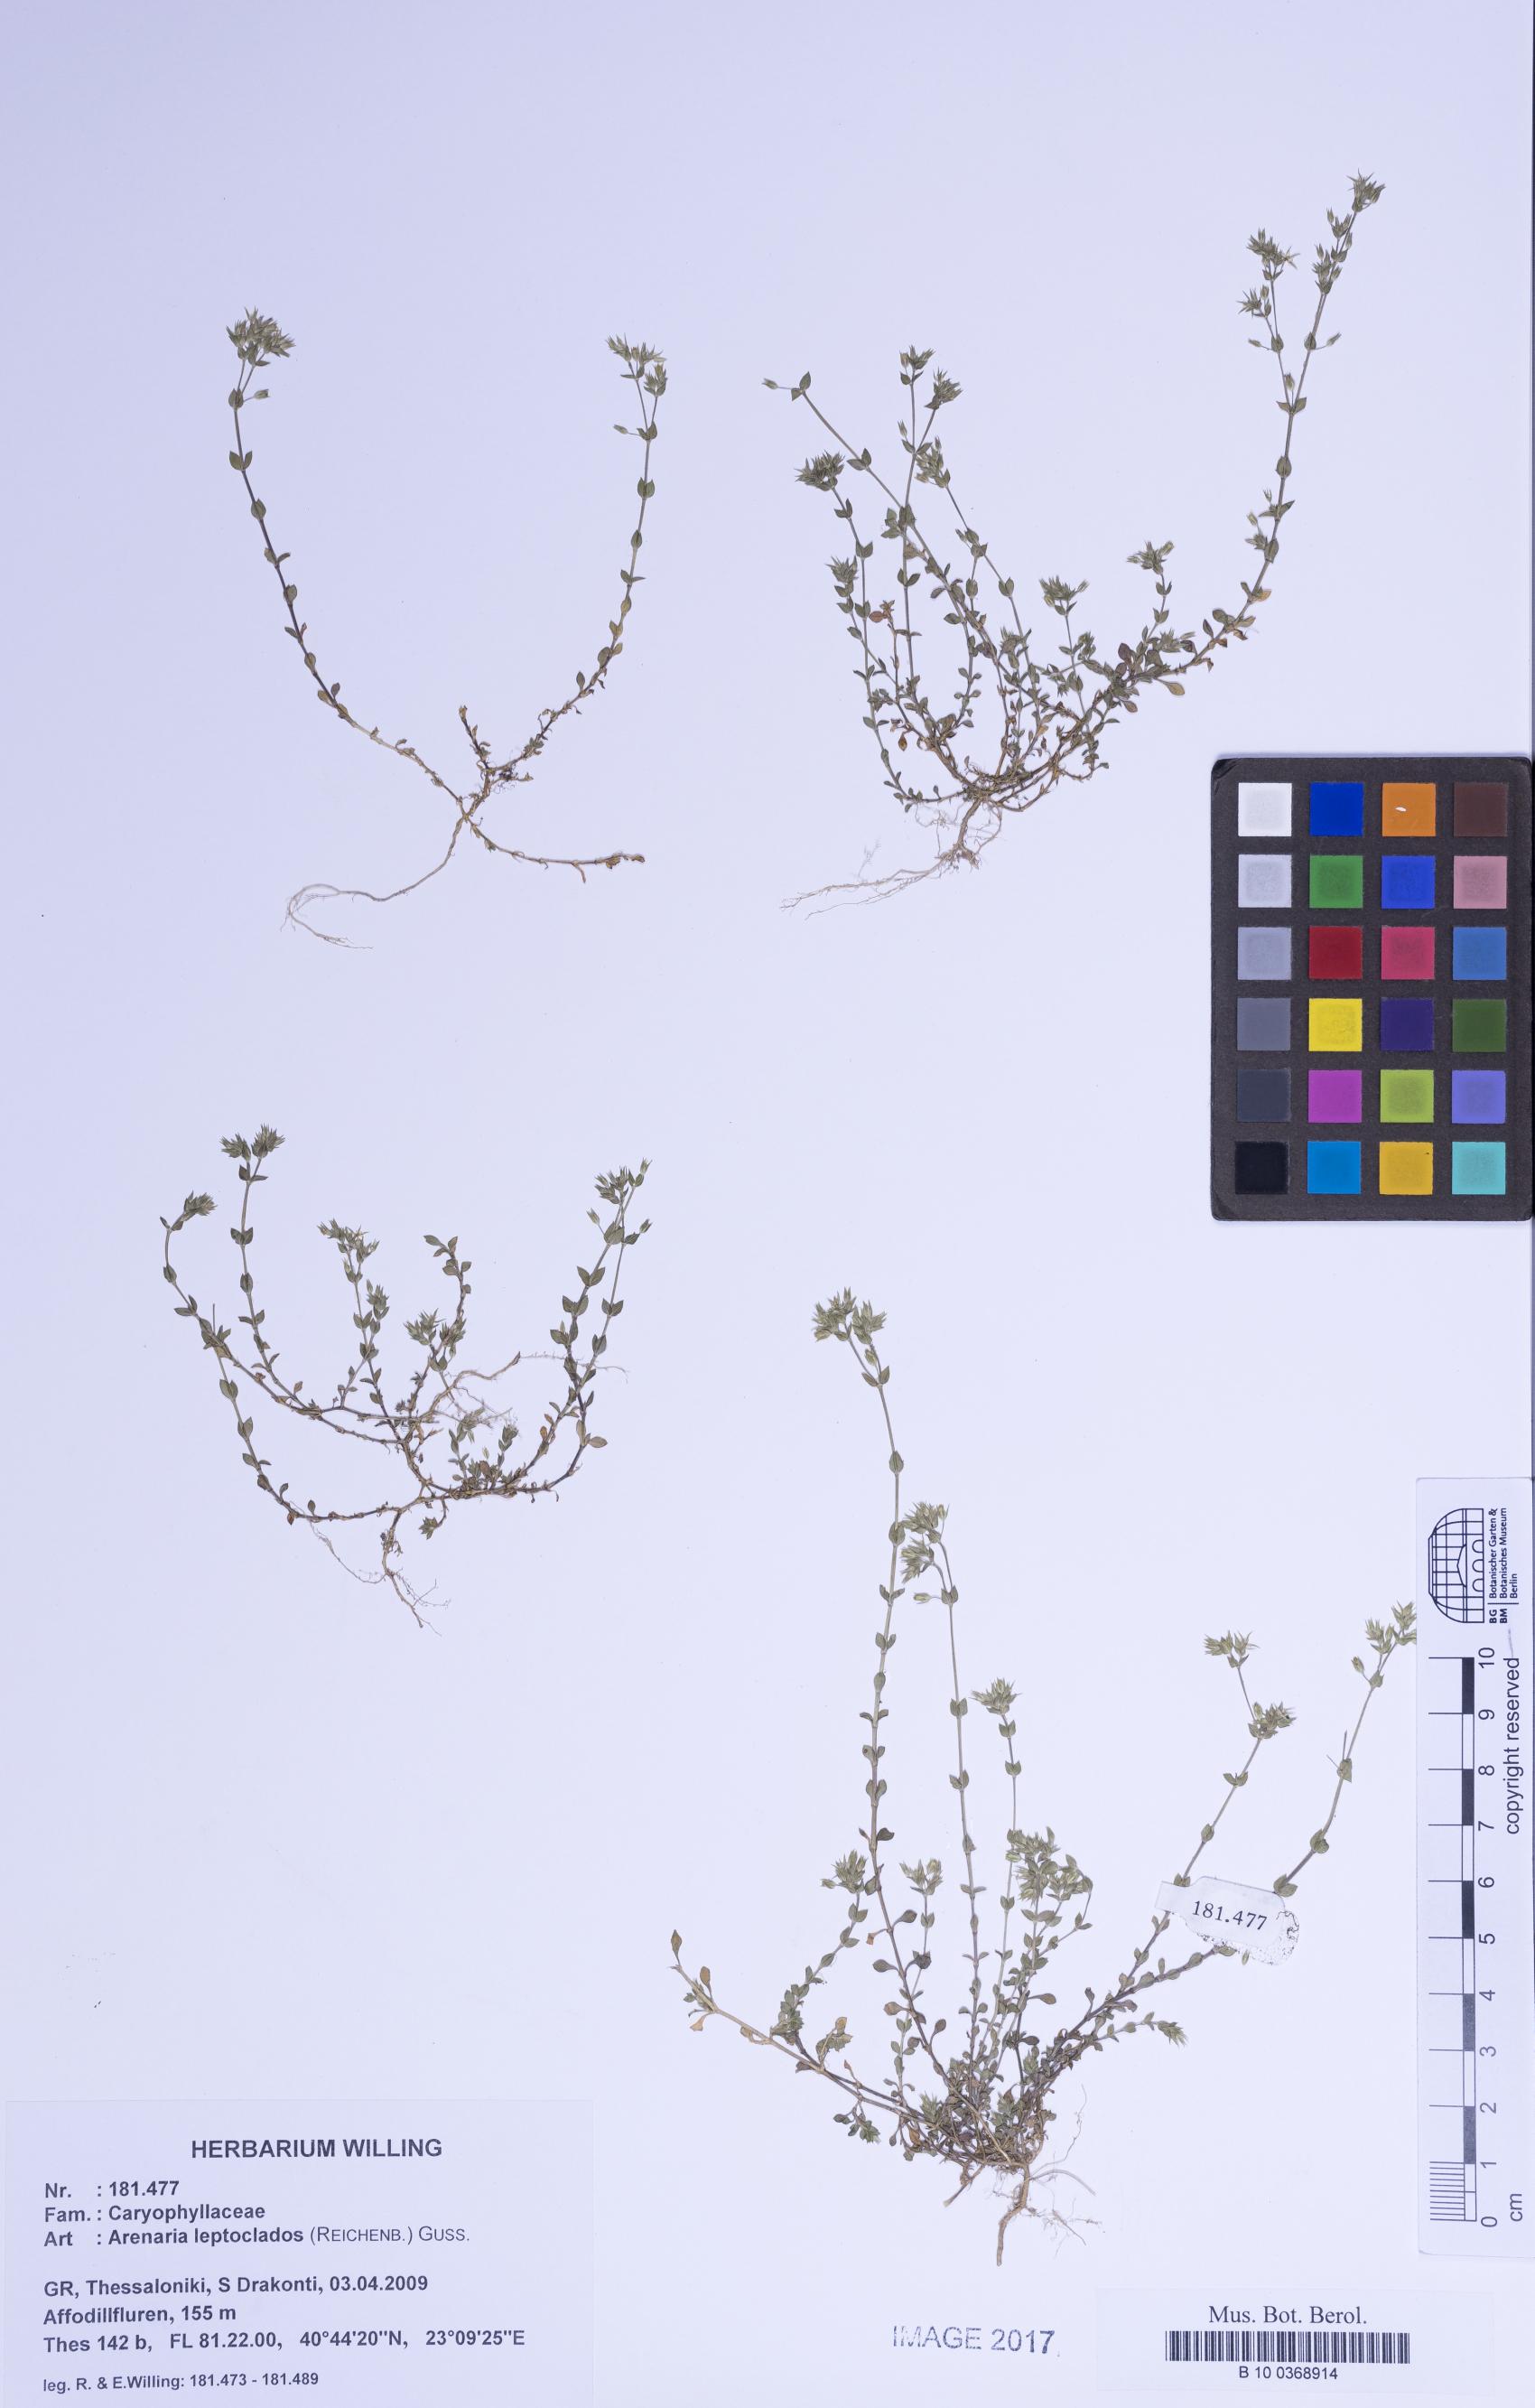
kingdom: Plantae
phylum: Tracheophyta
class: Magnoliopsida
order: Caryophyllales
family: Caryophyllaceae
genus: Arenaria
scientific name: Arenaria leptoclados
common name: Thyme-leaved sandwort
